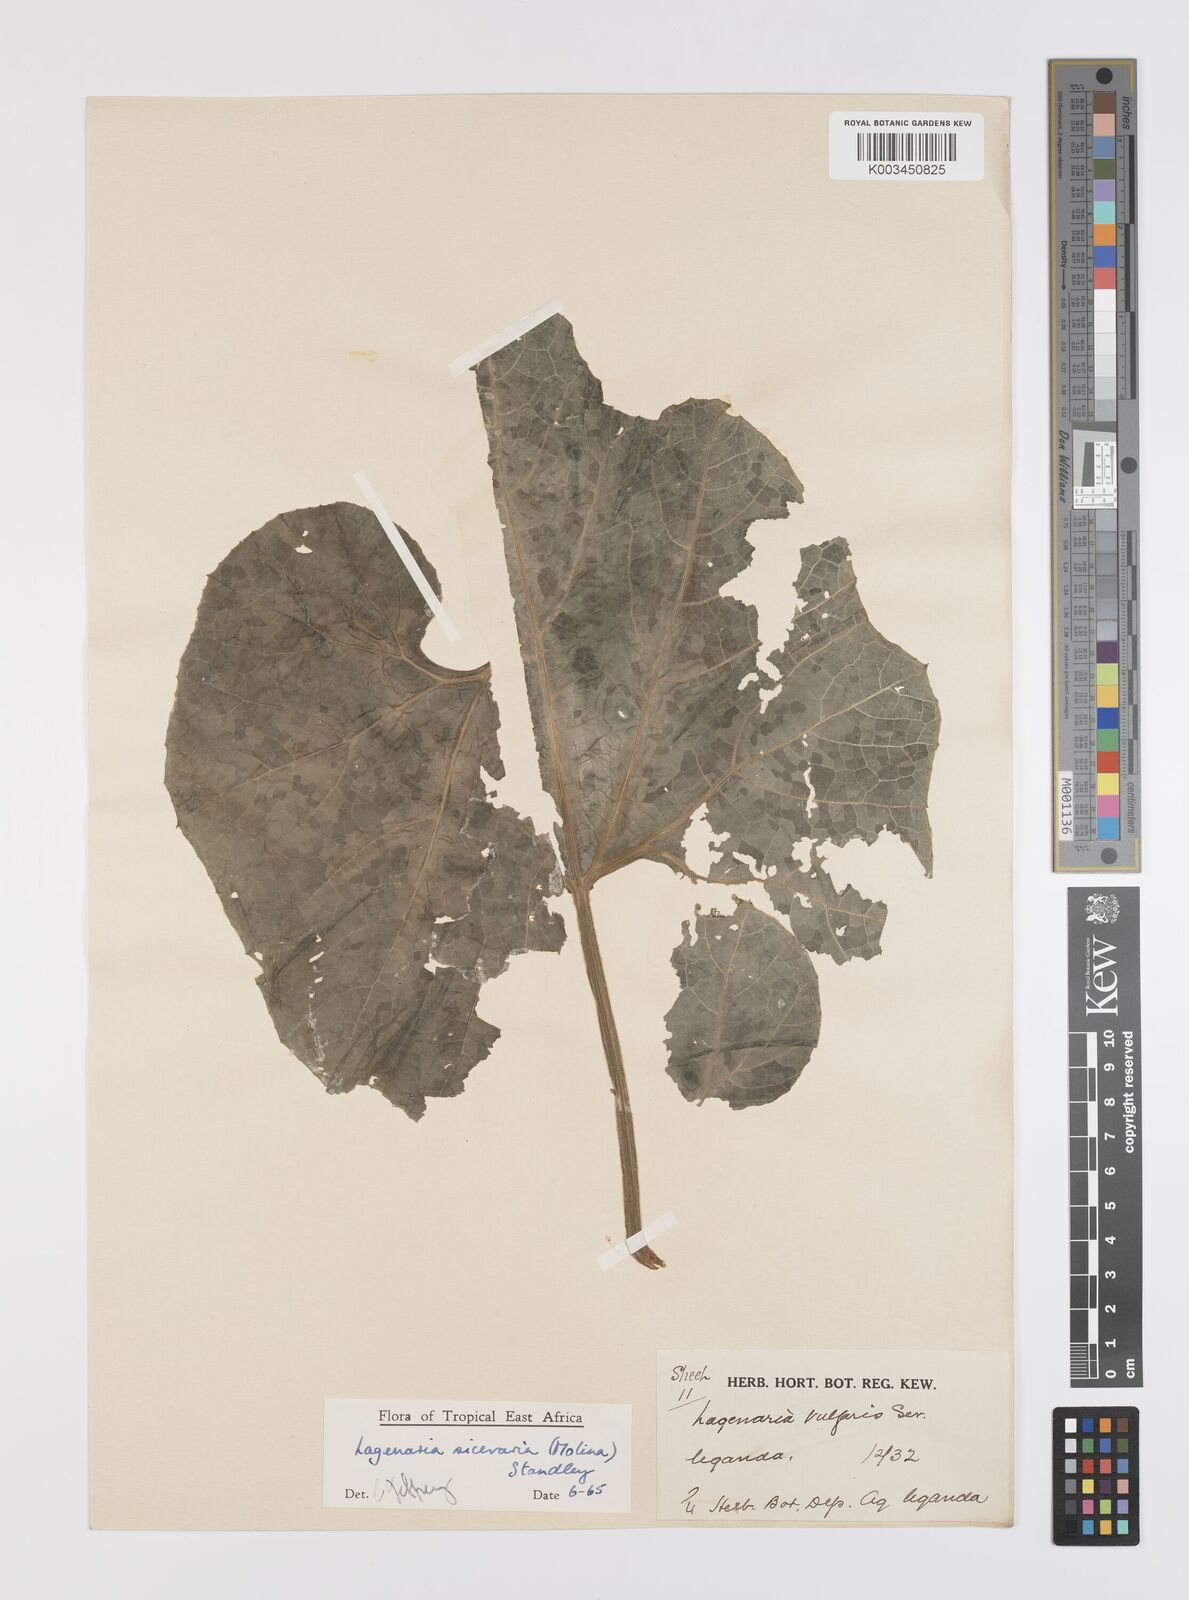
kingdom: Plantae
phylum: Tracheophyta
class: Magnoliopsida
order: Cucurbitales
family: Cucurbitaceae
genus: Lagenaria
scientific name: Lagenaria siceraria
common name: Bottle gourd
